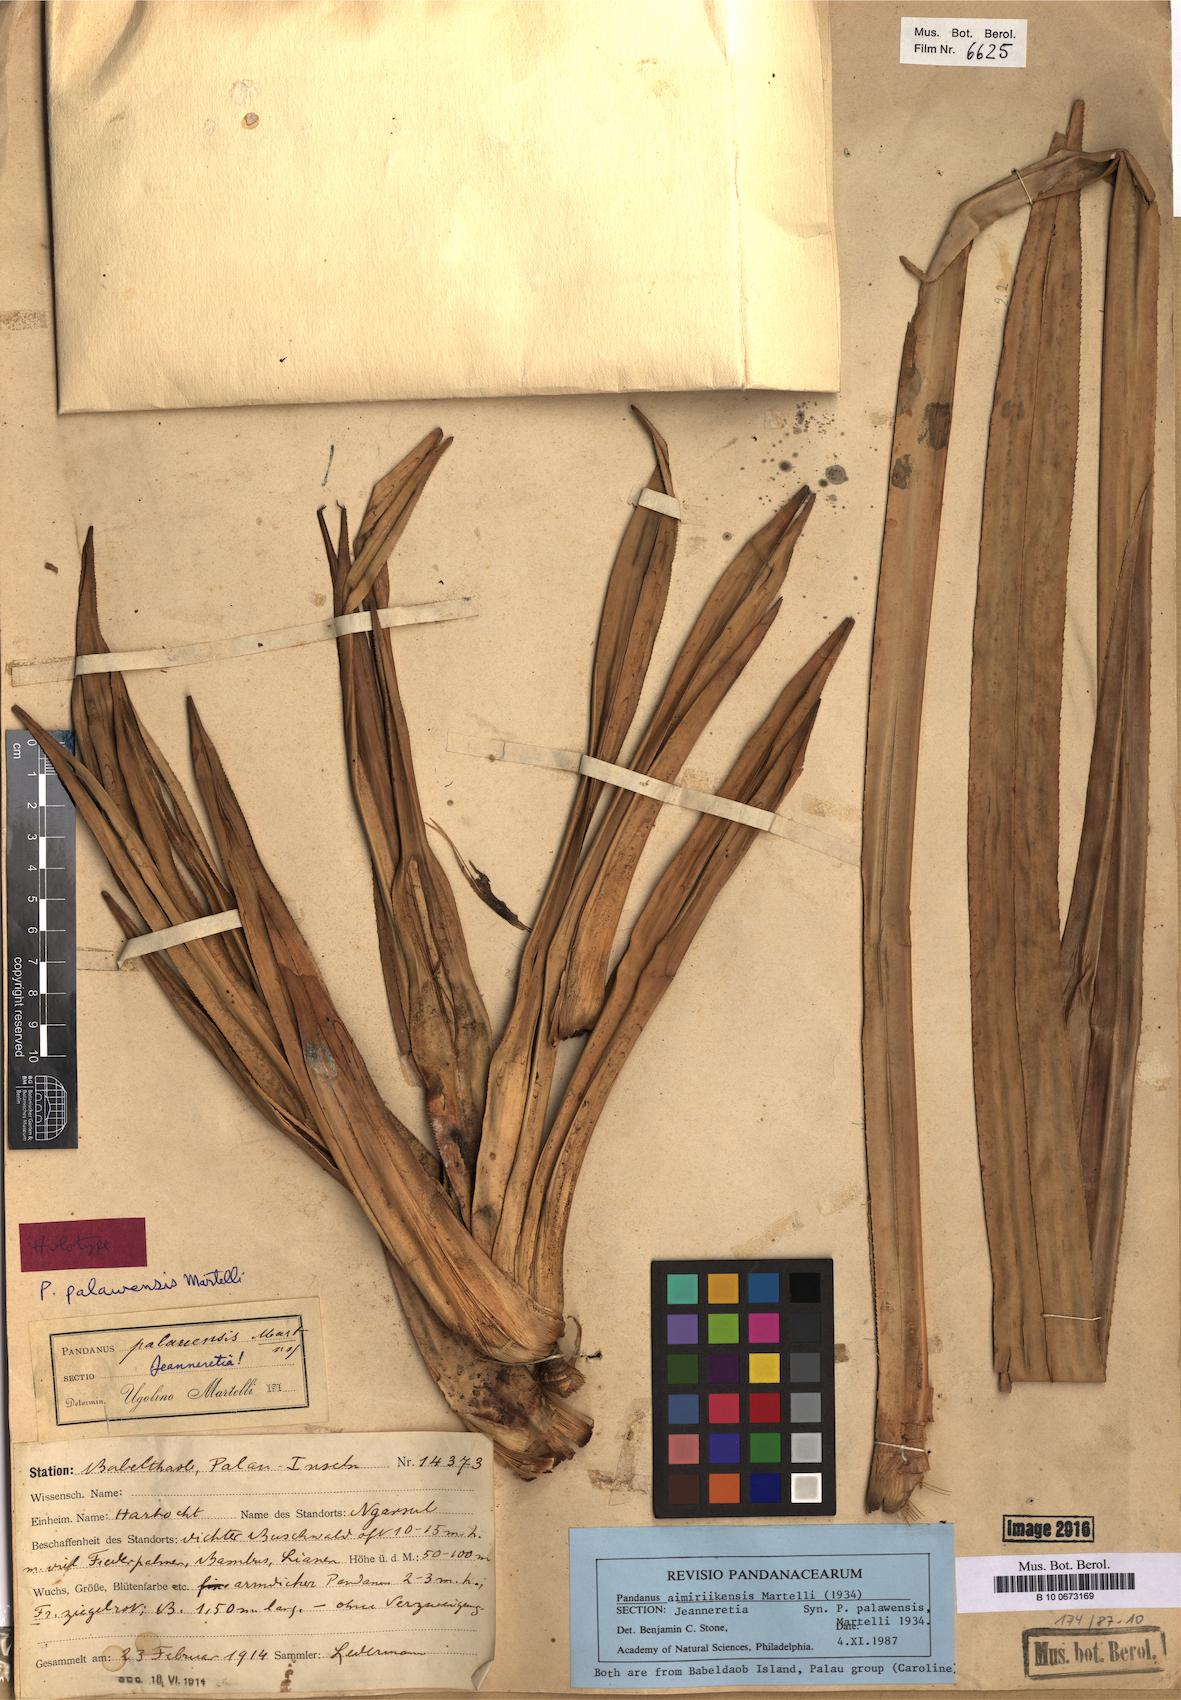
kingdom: Plantae
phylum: Tracheophyta
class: Liliopsida
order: Pandanales
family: Pandanaceae
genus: Pandanus
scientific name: Pandanus polycephalus
